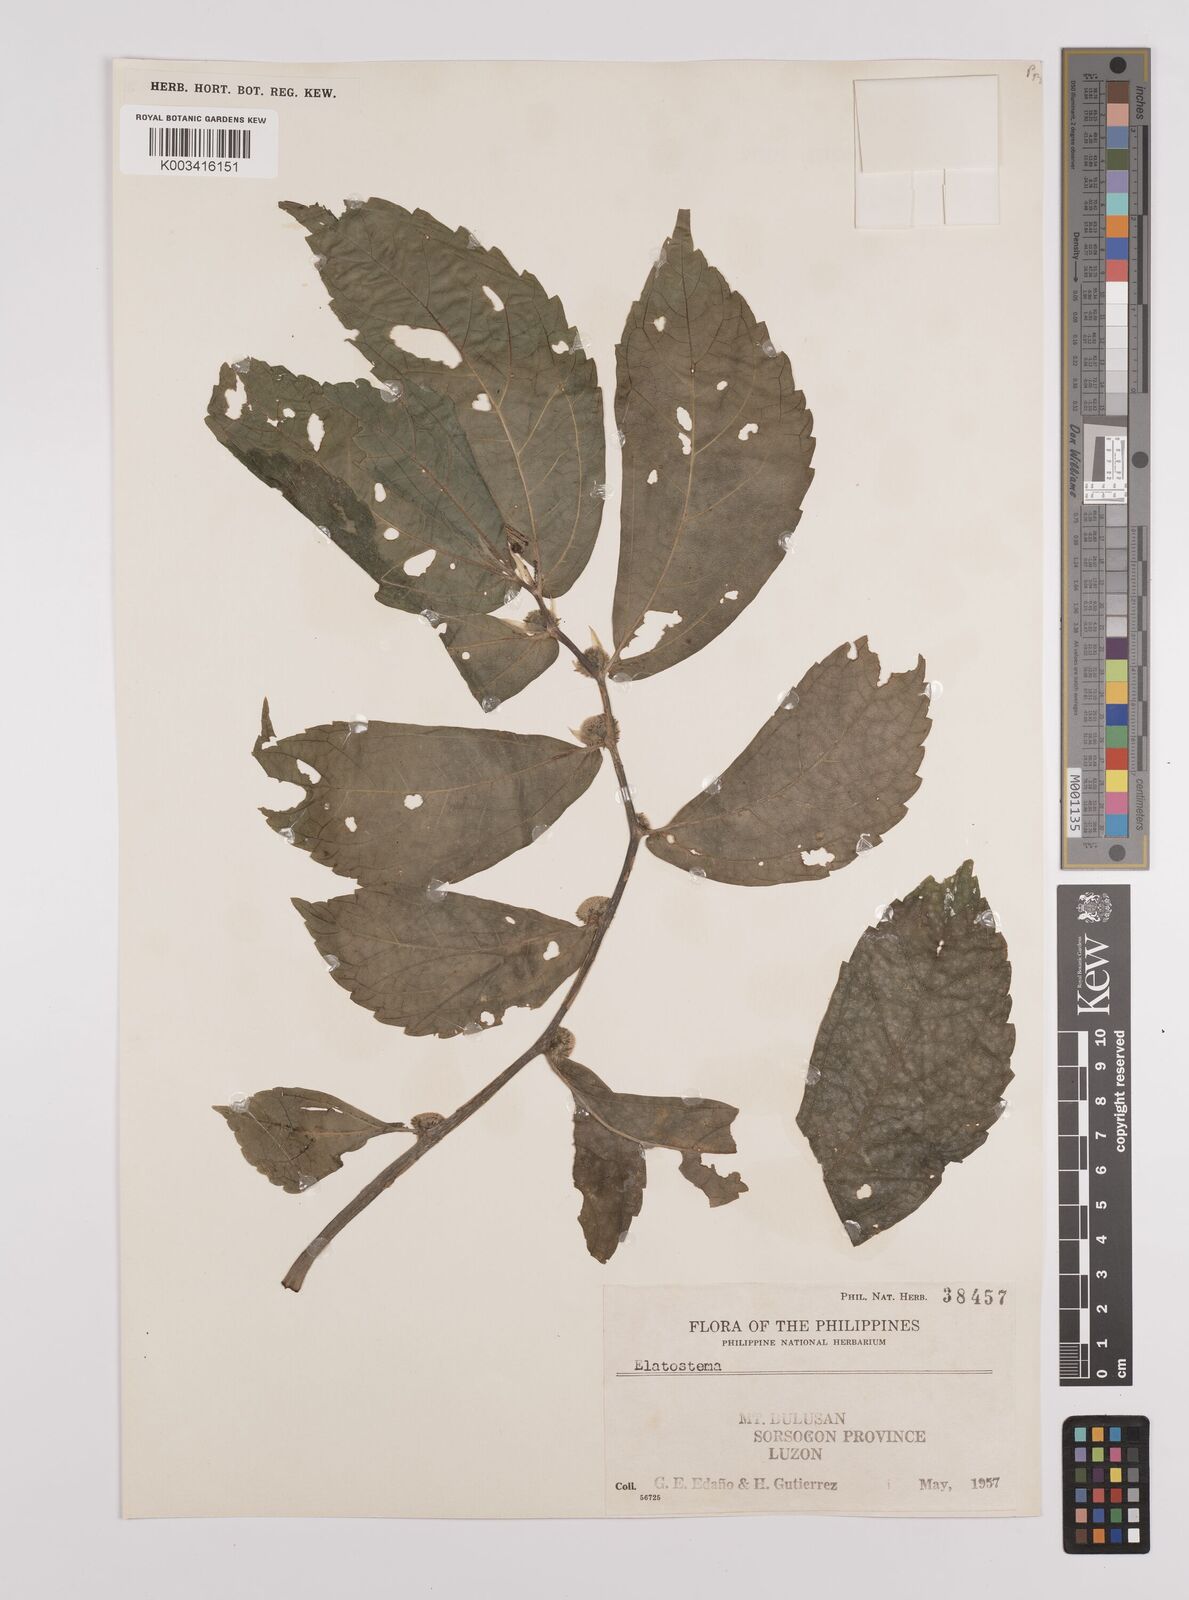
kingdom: Plantae
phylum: Tracheophyta
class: Magnoliopsida
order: Rosales
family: Urticaceae
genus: Elatostema
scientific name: Elatostema
